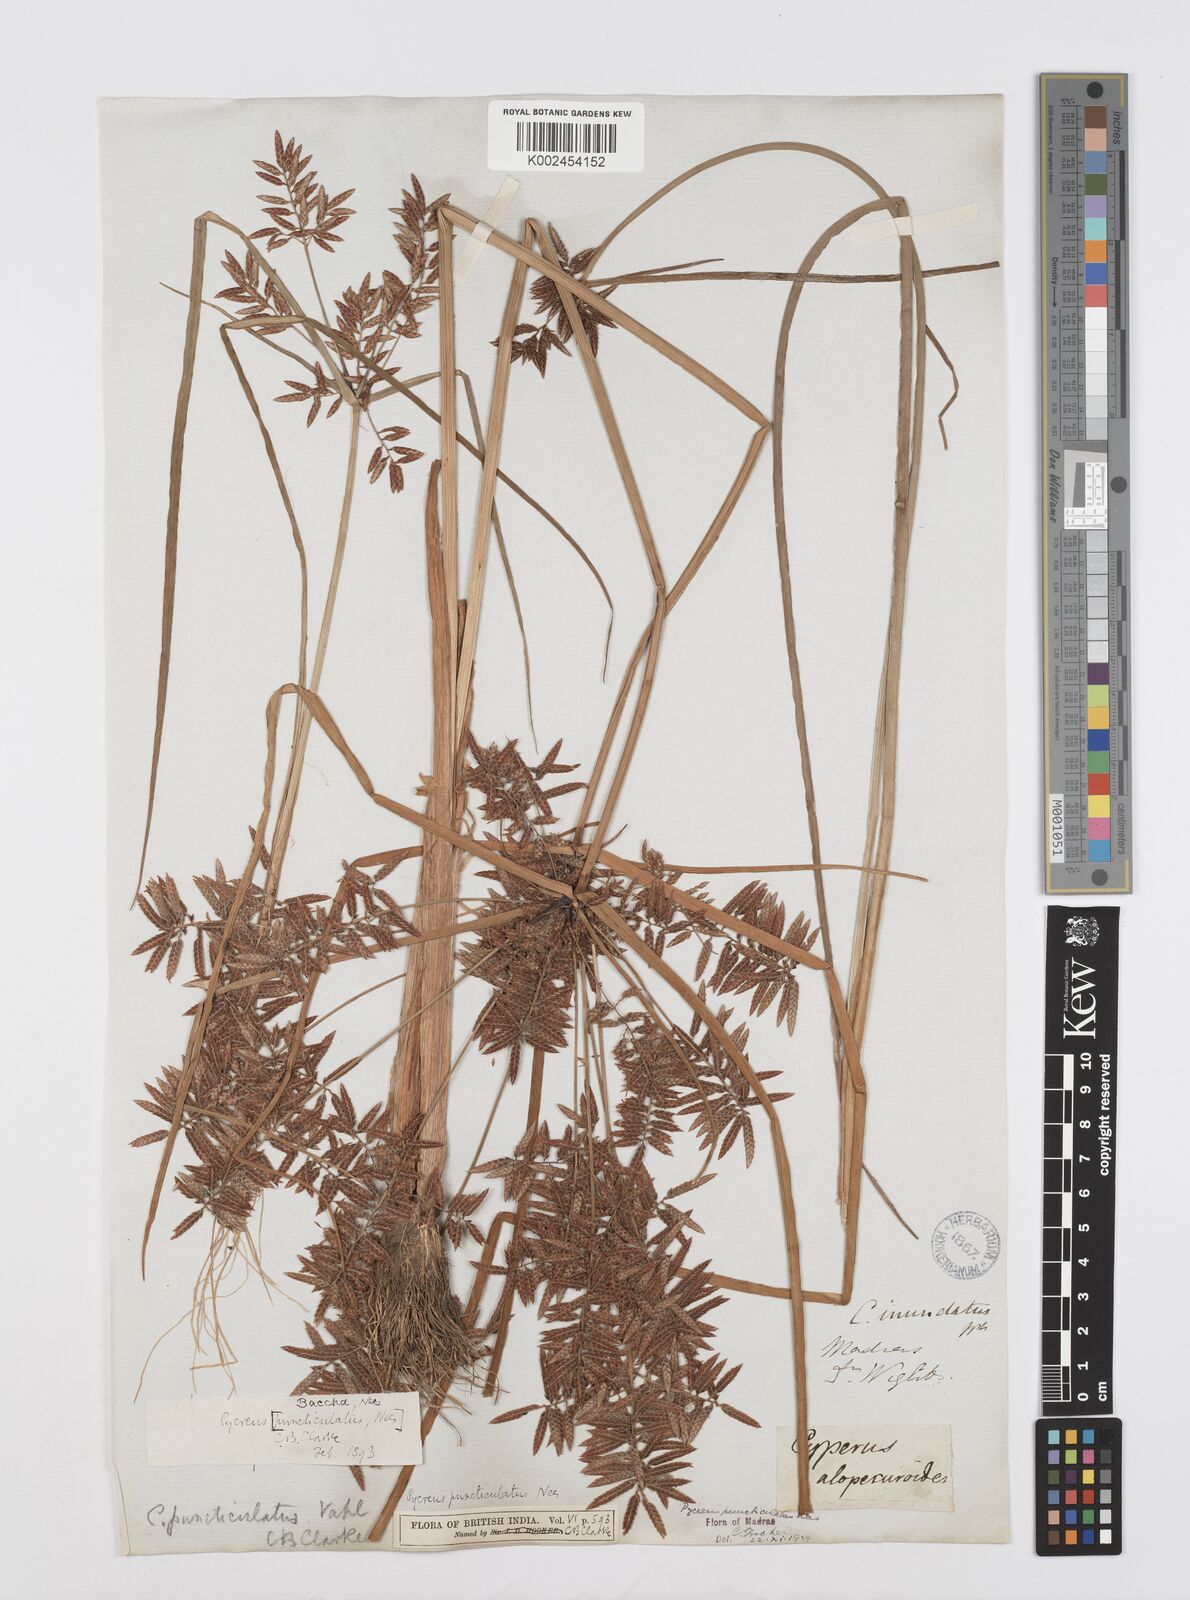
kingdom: Plantae
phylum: Tracheophyta
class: Liliopsida
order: Poales
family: Cyperaceae
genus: Cyperus
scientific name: Cyperus serotinus
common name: Tidalmarsh flatsedge
